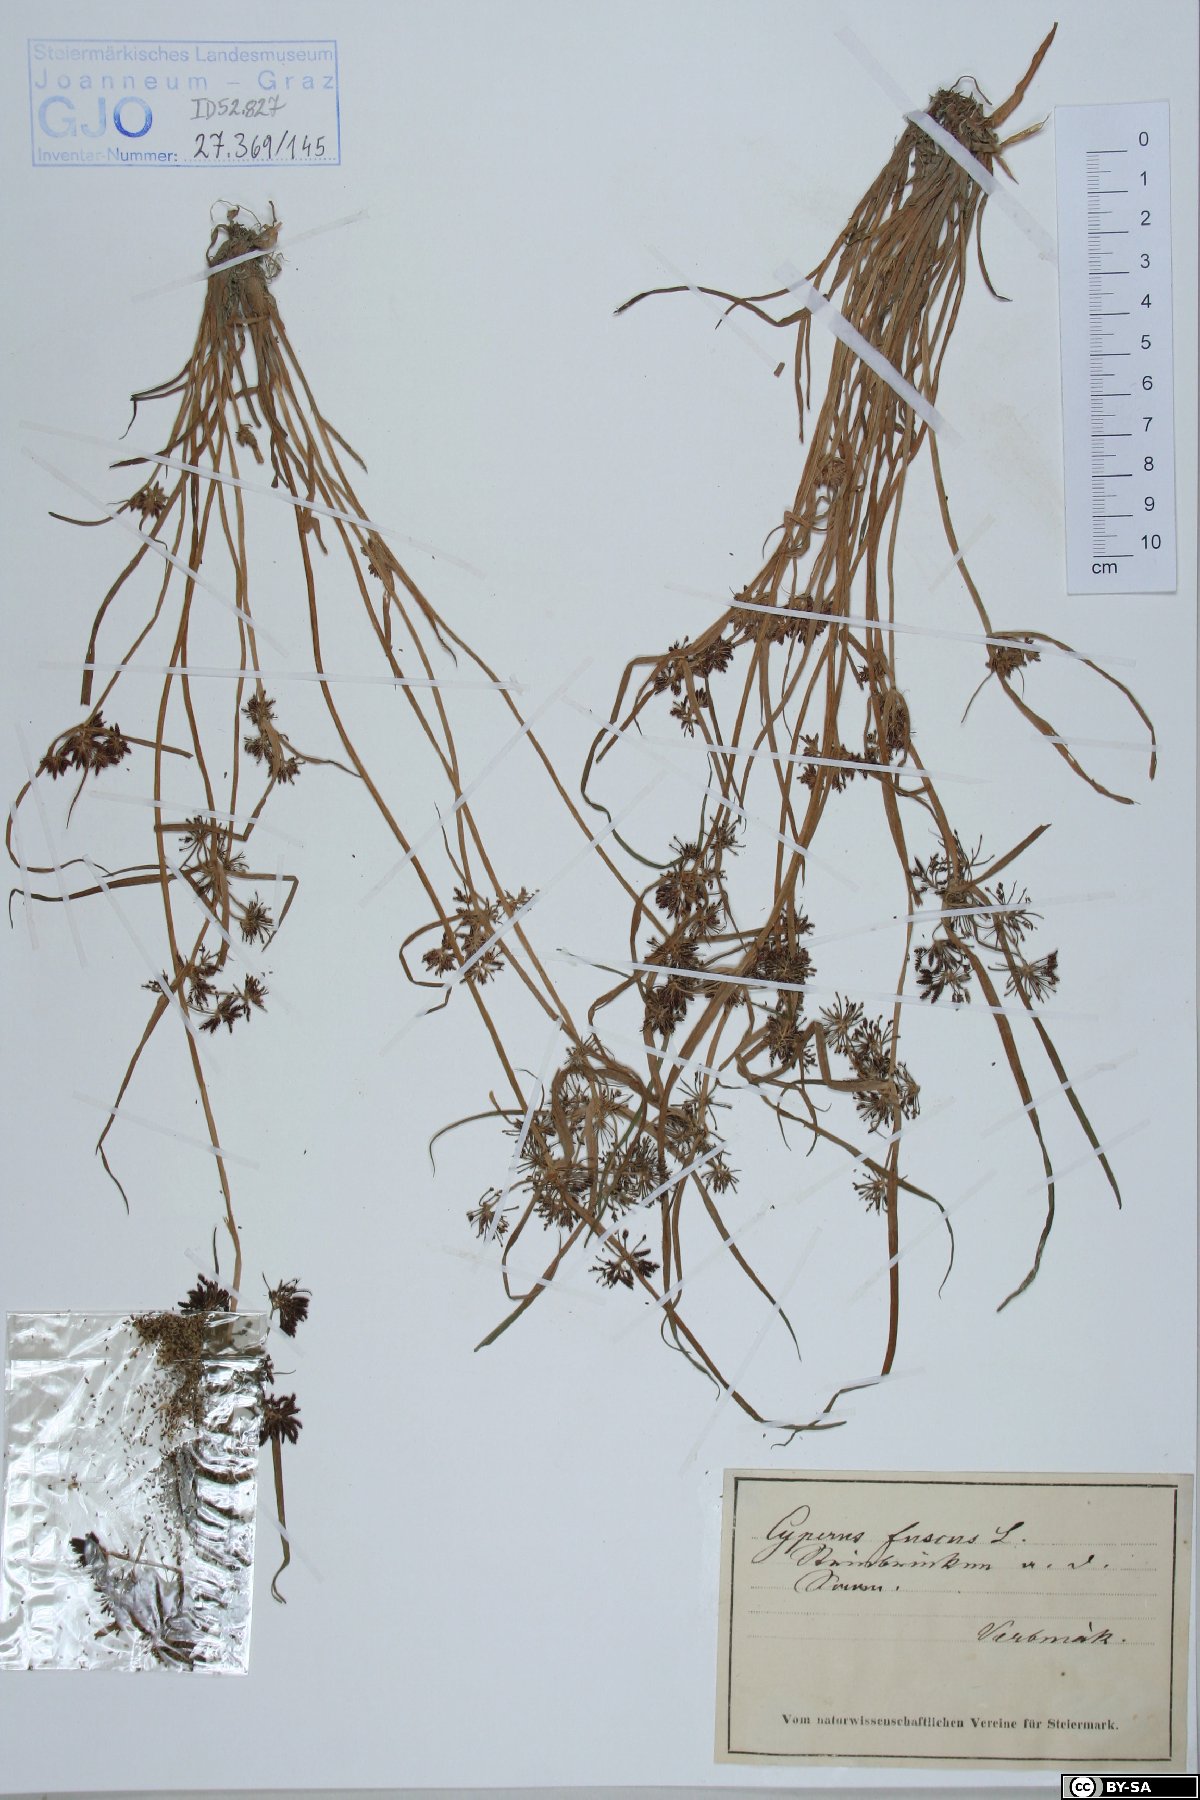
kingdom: Plantae
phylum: Tracheophyta
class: Liliopsida
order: Poales
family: Cyperaceae
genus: Cyperus
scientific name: Cyperus fuscus
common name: Brown galingale
